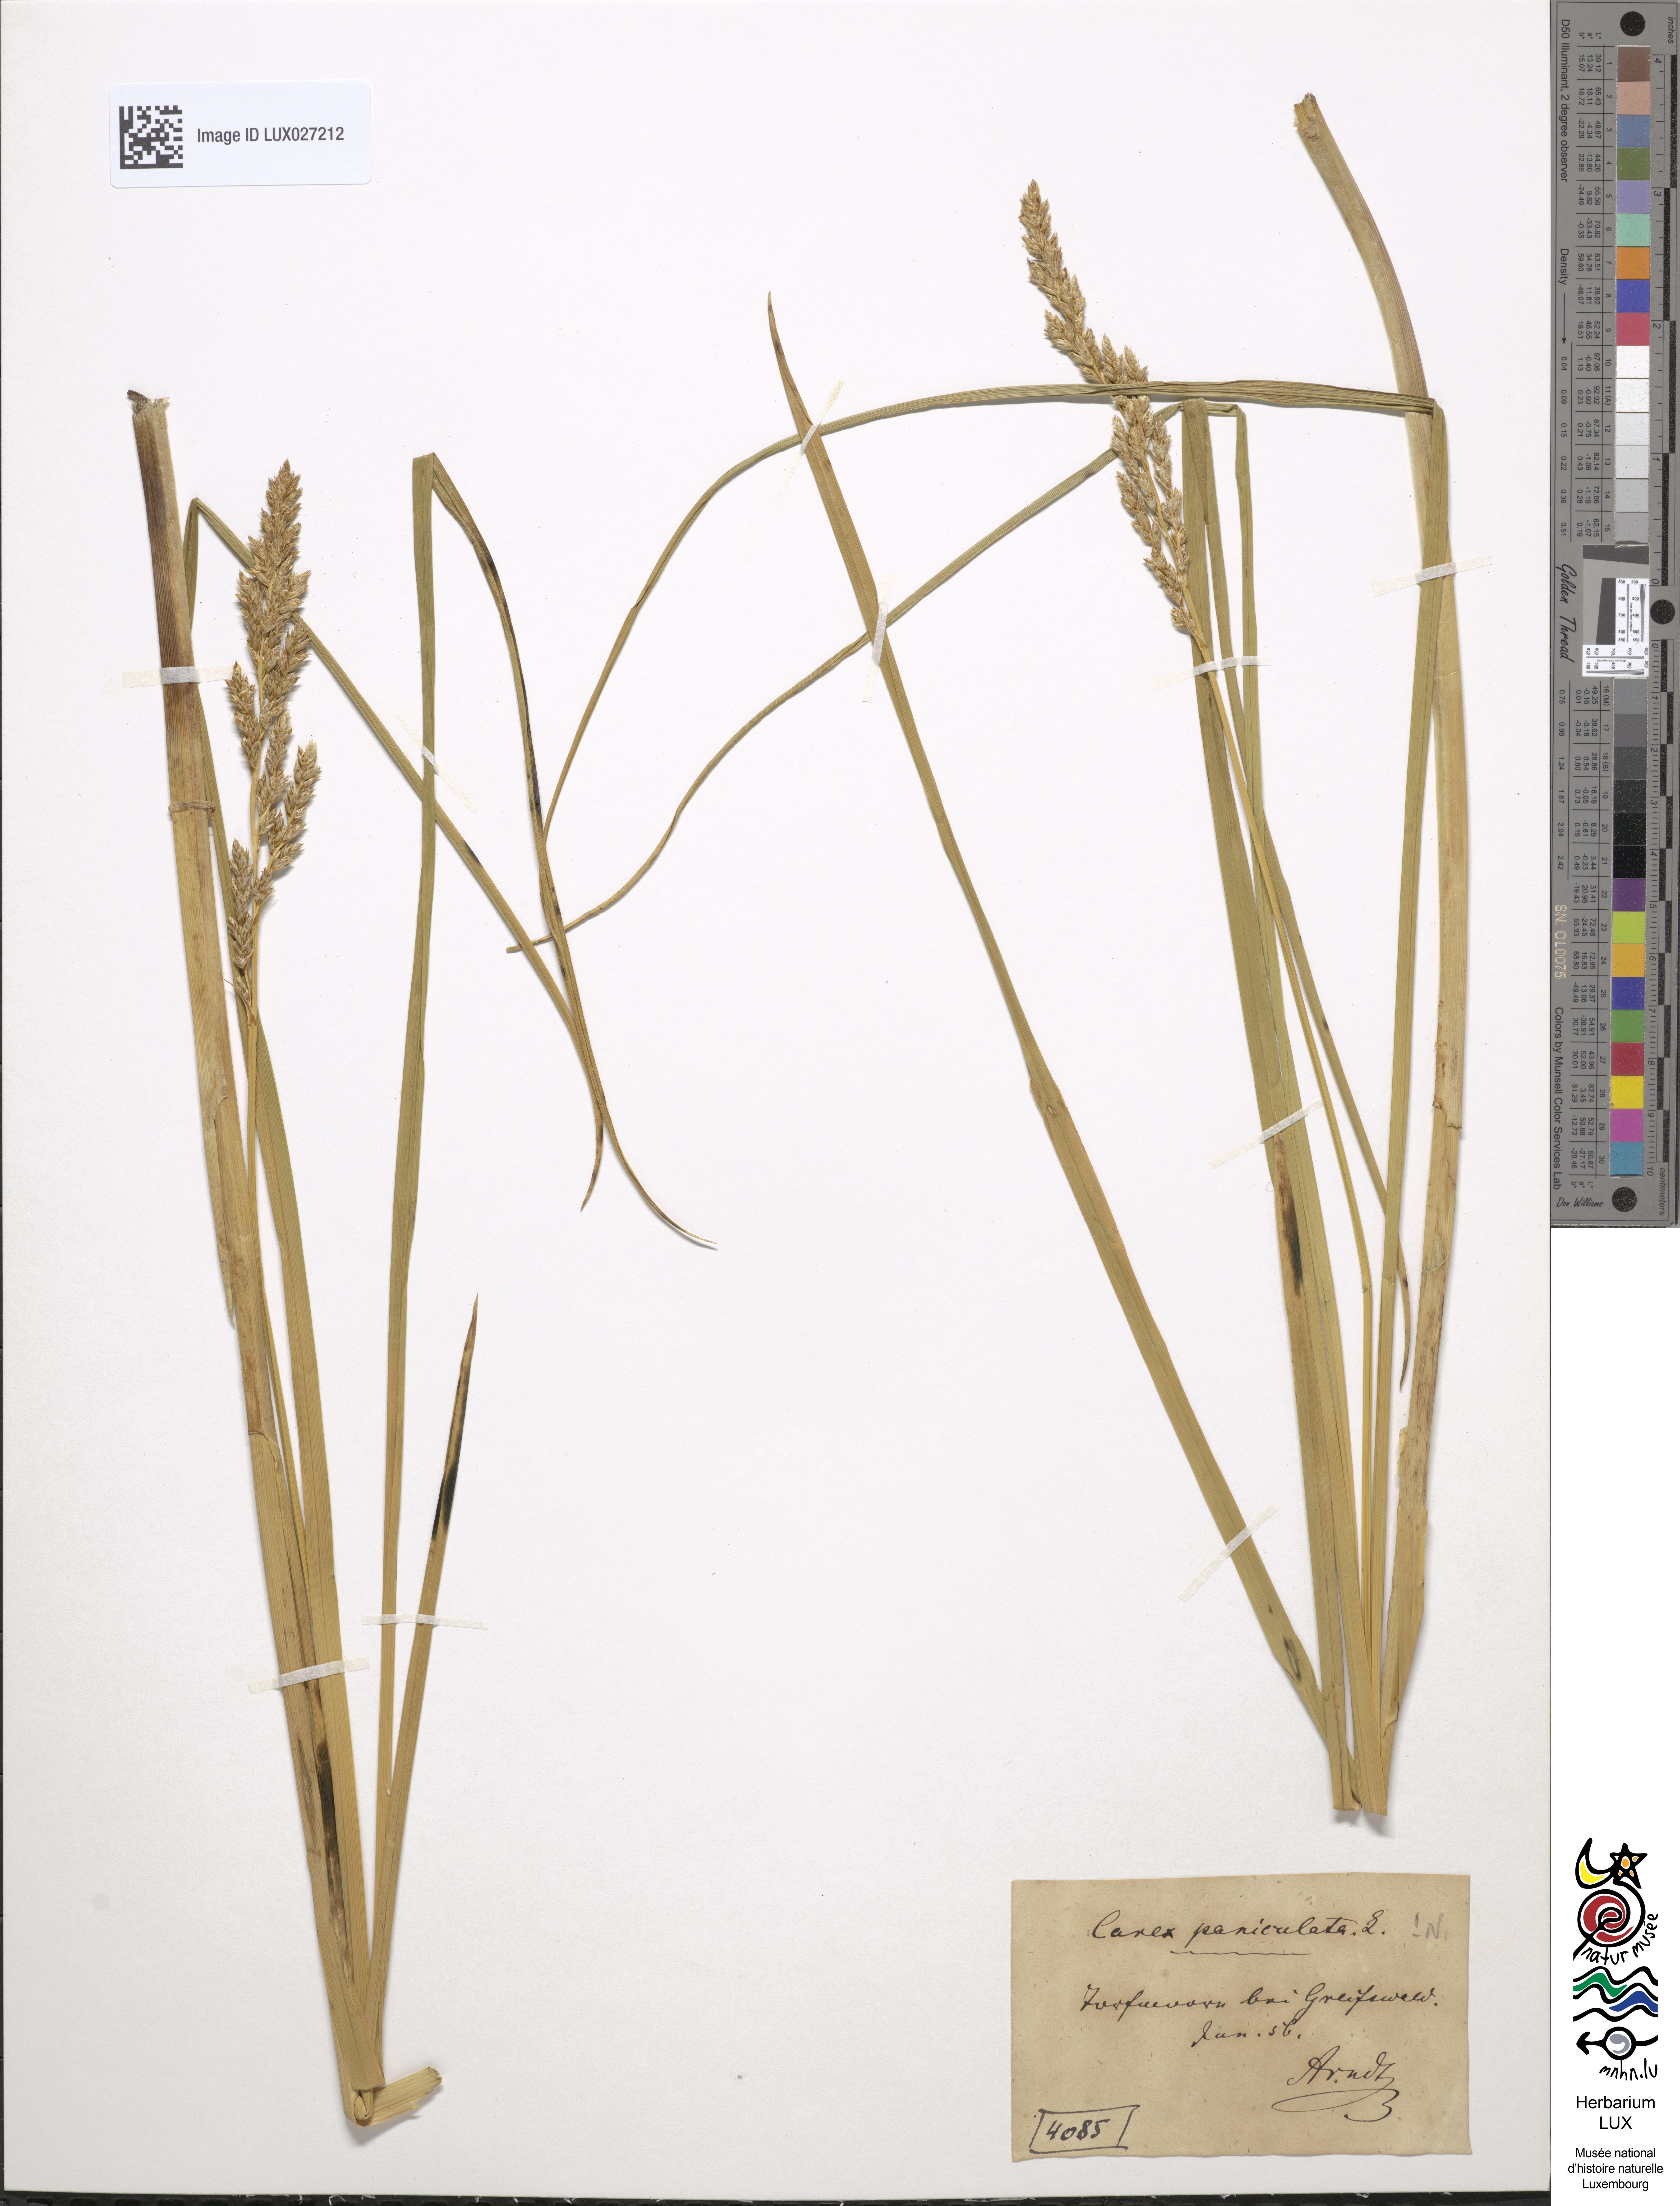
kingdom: Plantae
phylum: Tracheophyta
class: Liliopsida
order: Poales
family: Cyperaceae
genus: Carex
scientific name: Carex paniculata
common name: Greater tussock-sedge
